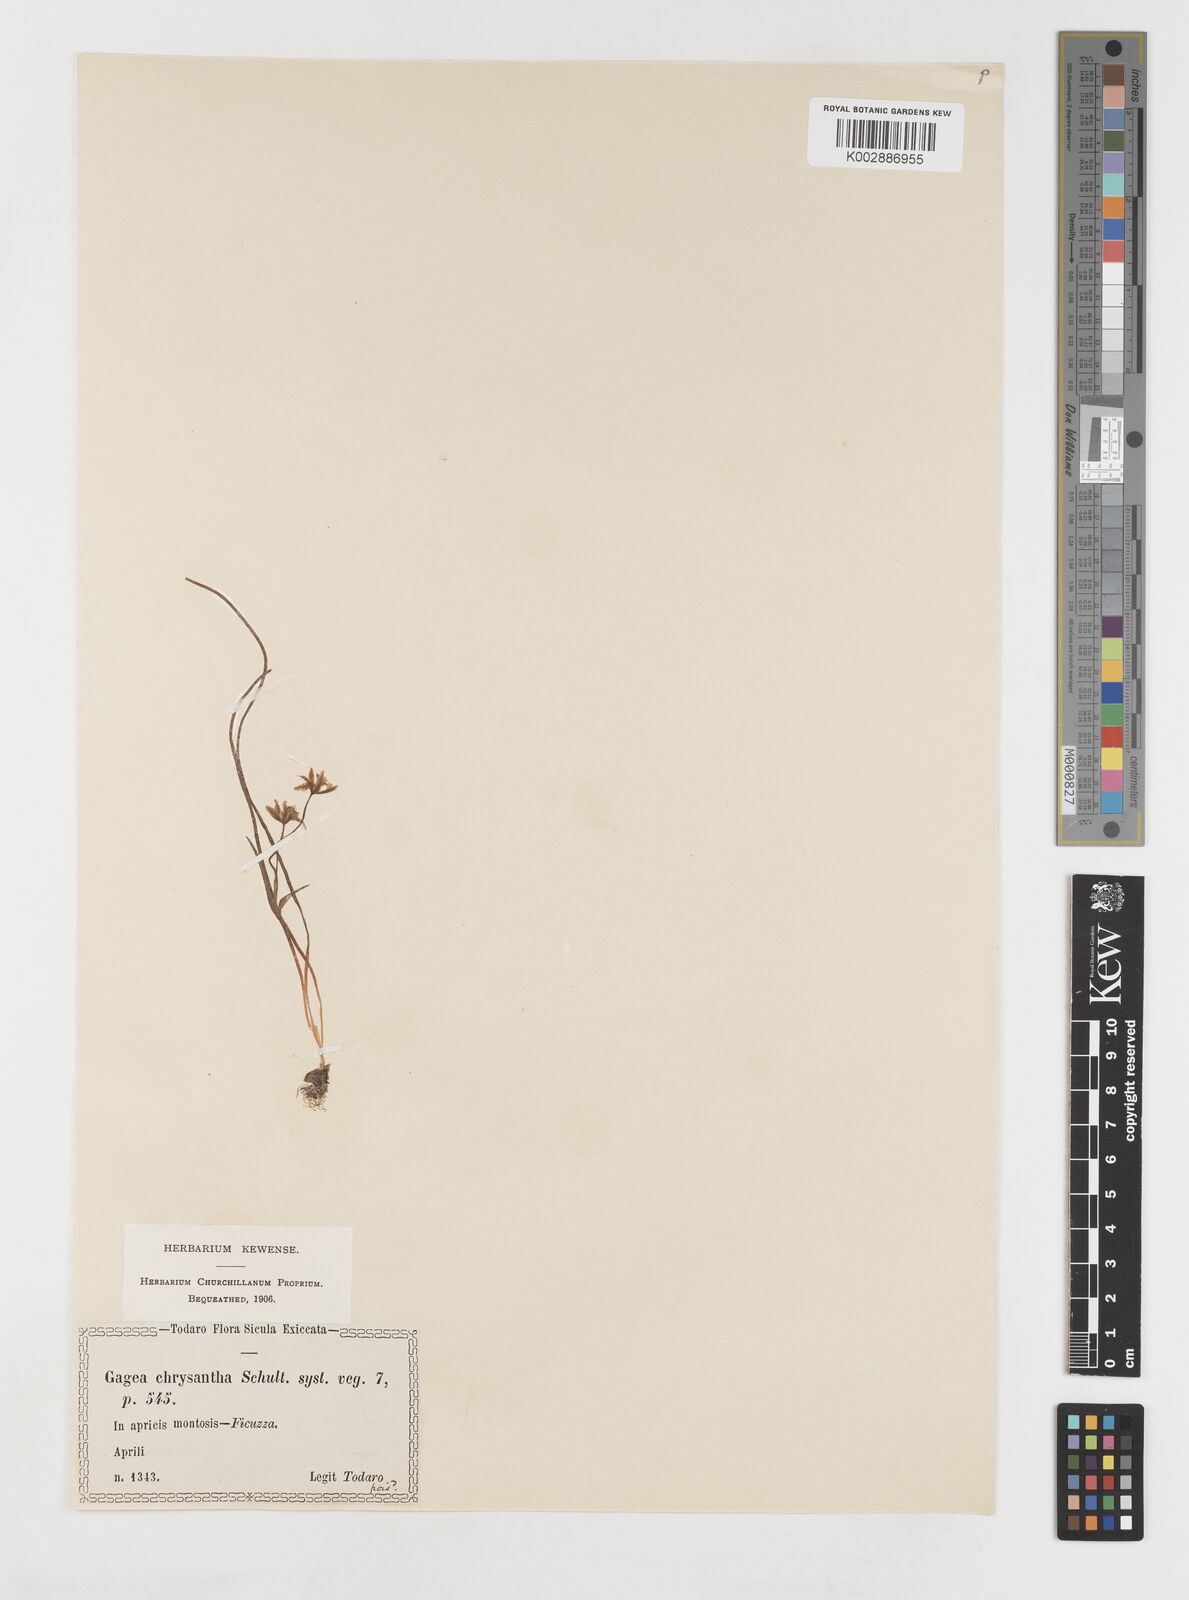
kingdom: Plantae
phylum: Tracheophyta
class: Liliopsida
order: Liliales
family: Liliaceae
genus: Gagea
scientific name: Gagea chrysantha
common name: Golden gagea
